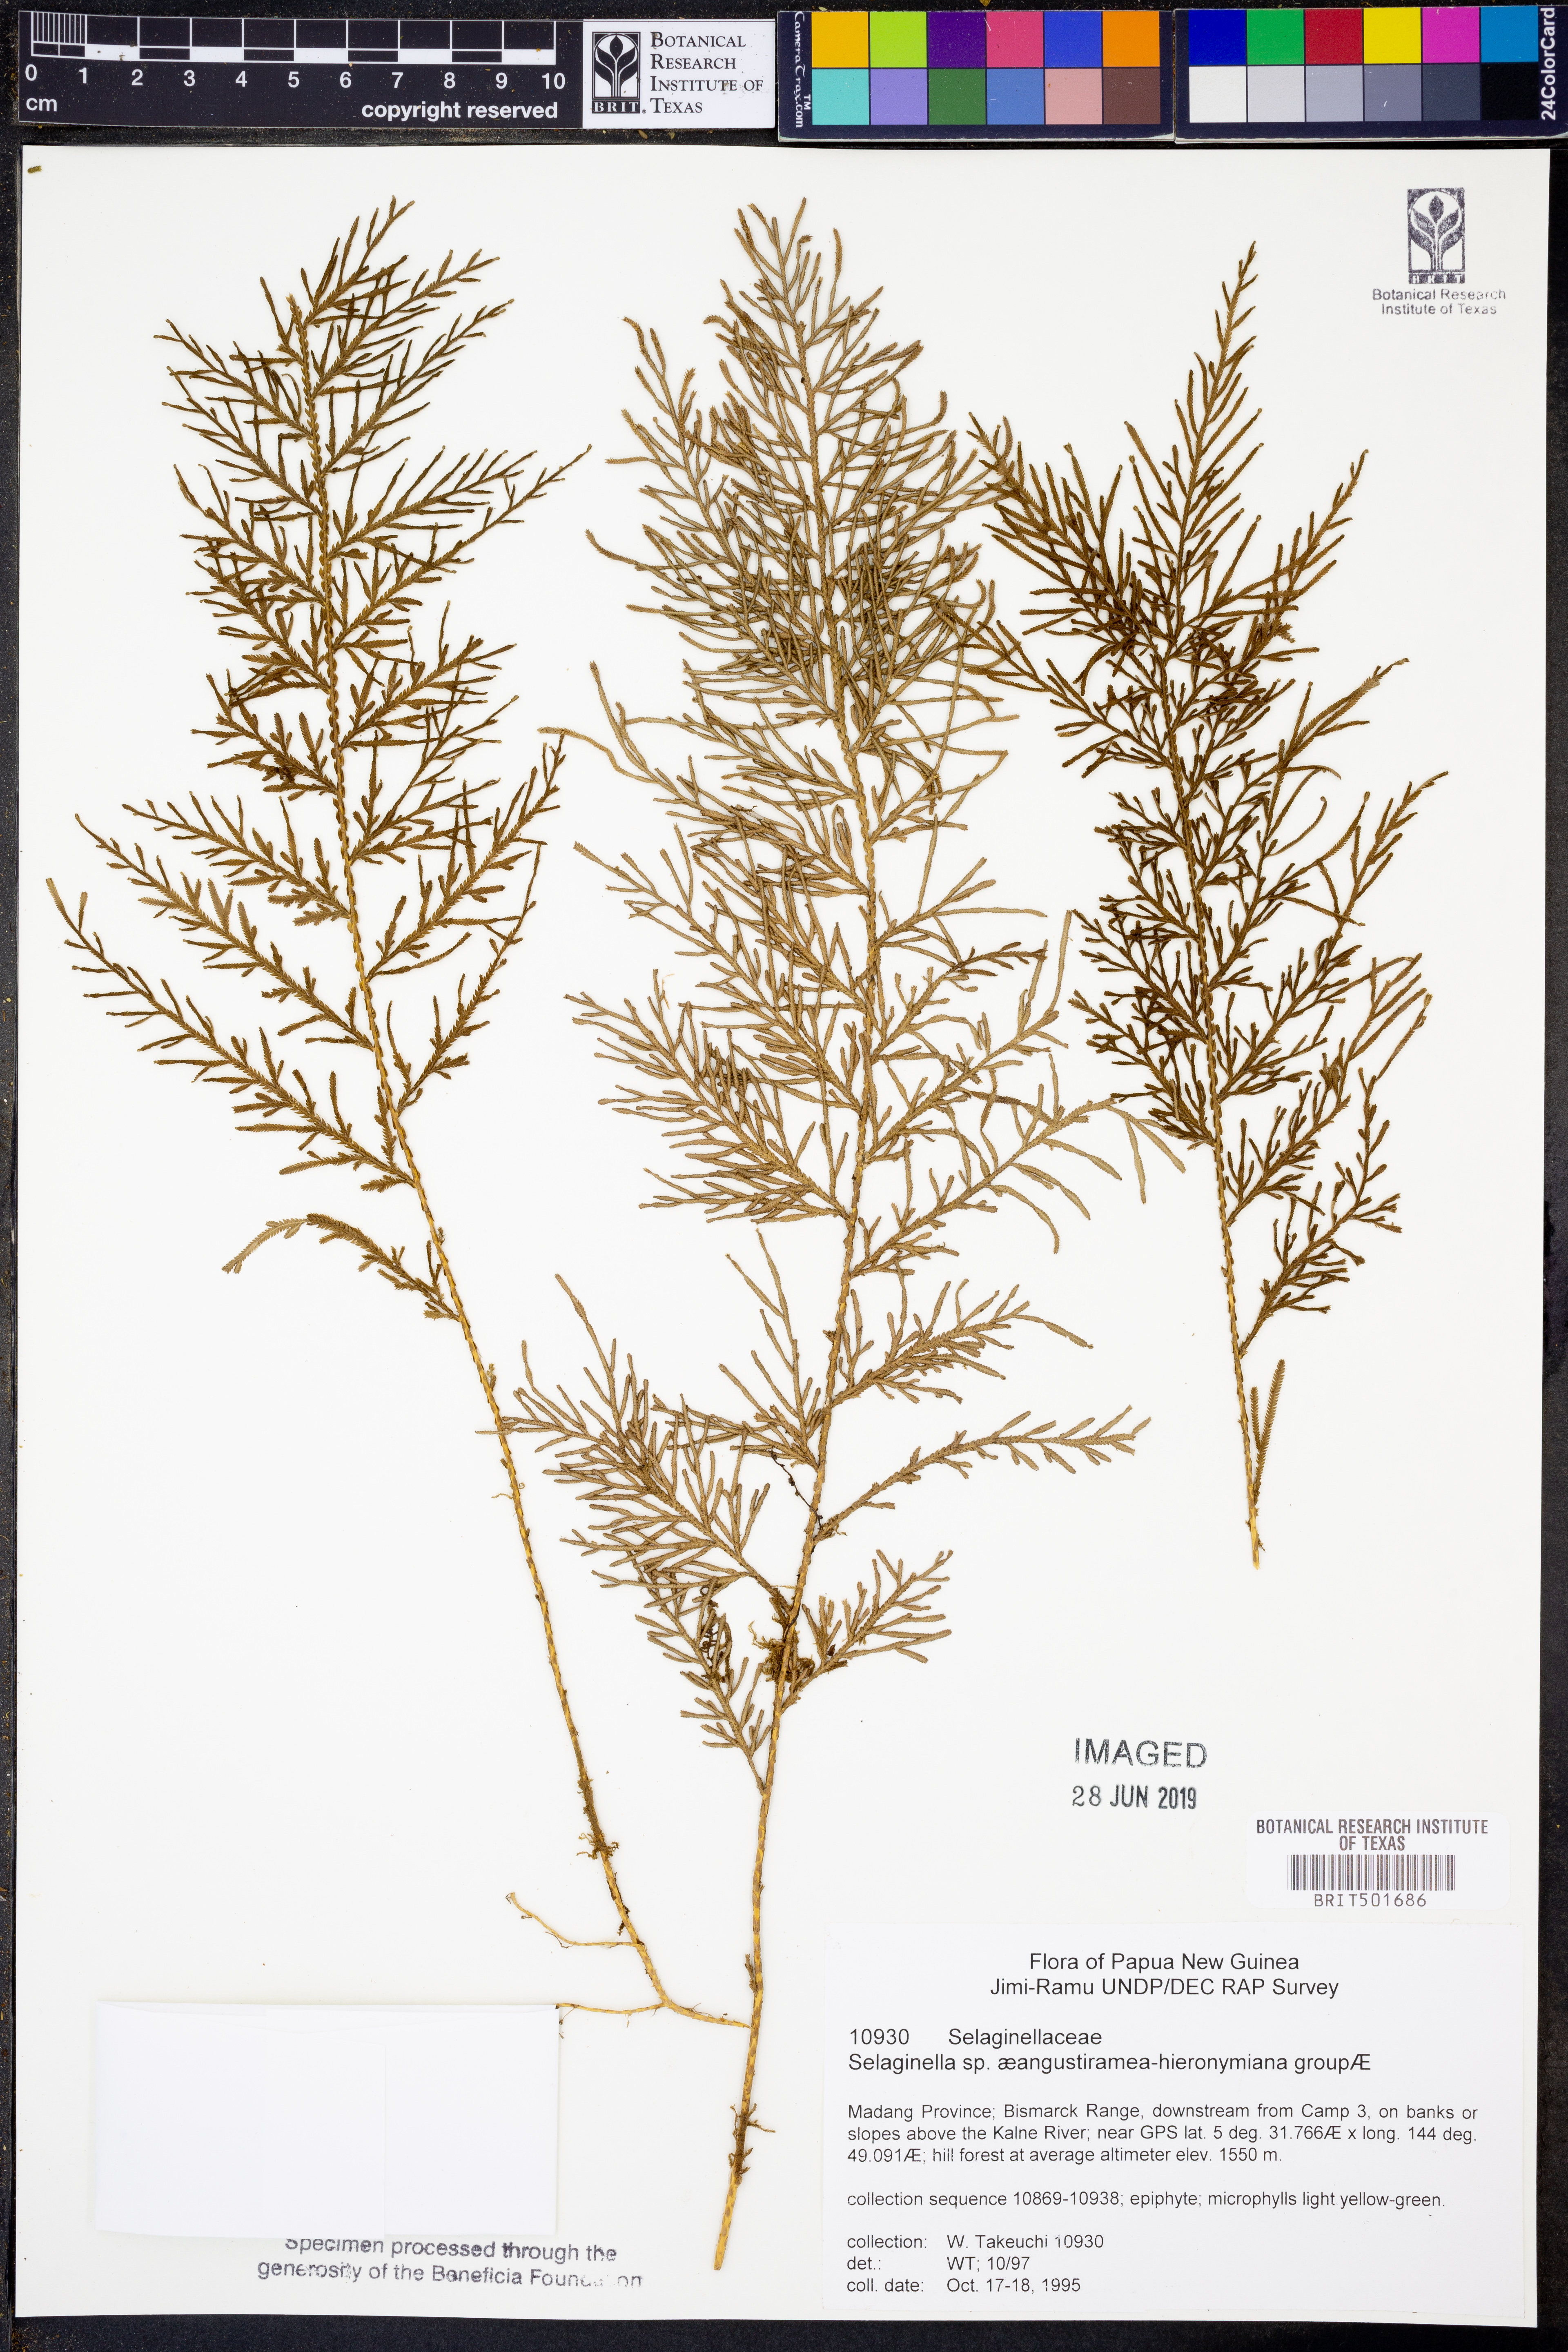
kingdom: Plantae
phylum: Tracheophyta
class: Lycopodiopsida
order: Selaginellales
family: Selaginellaceae
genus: Selaginella
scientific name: Selaginella
